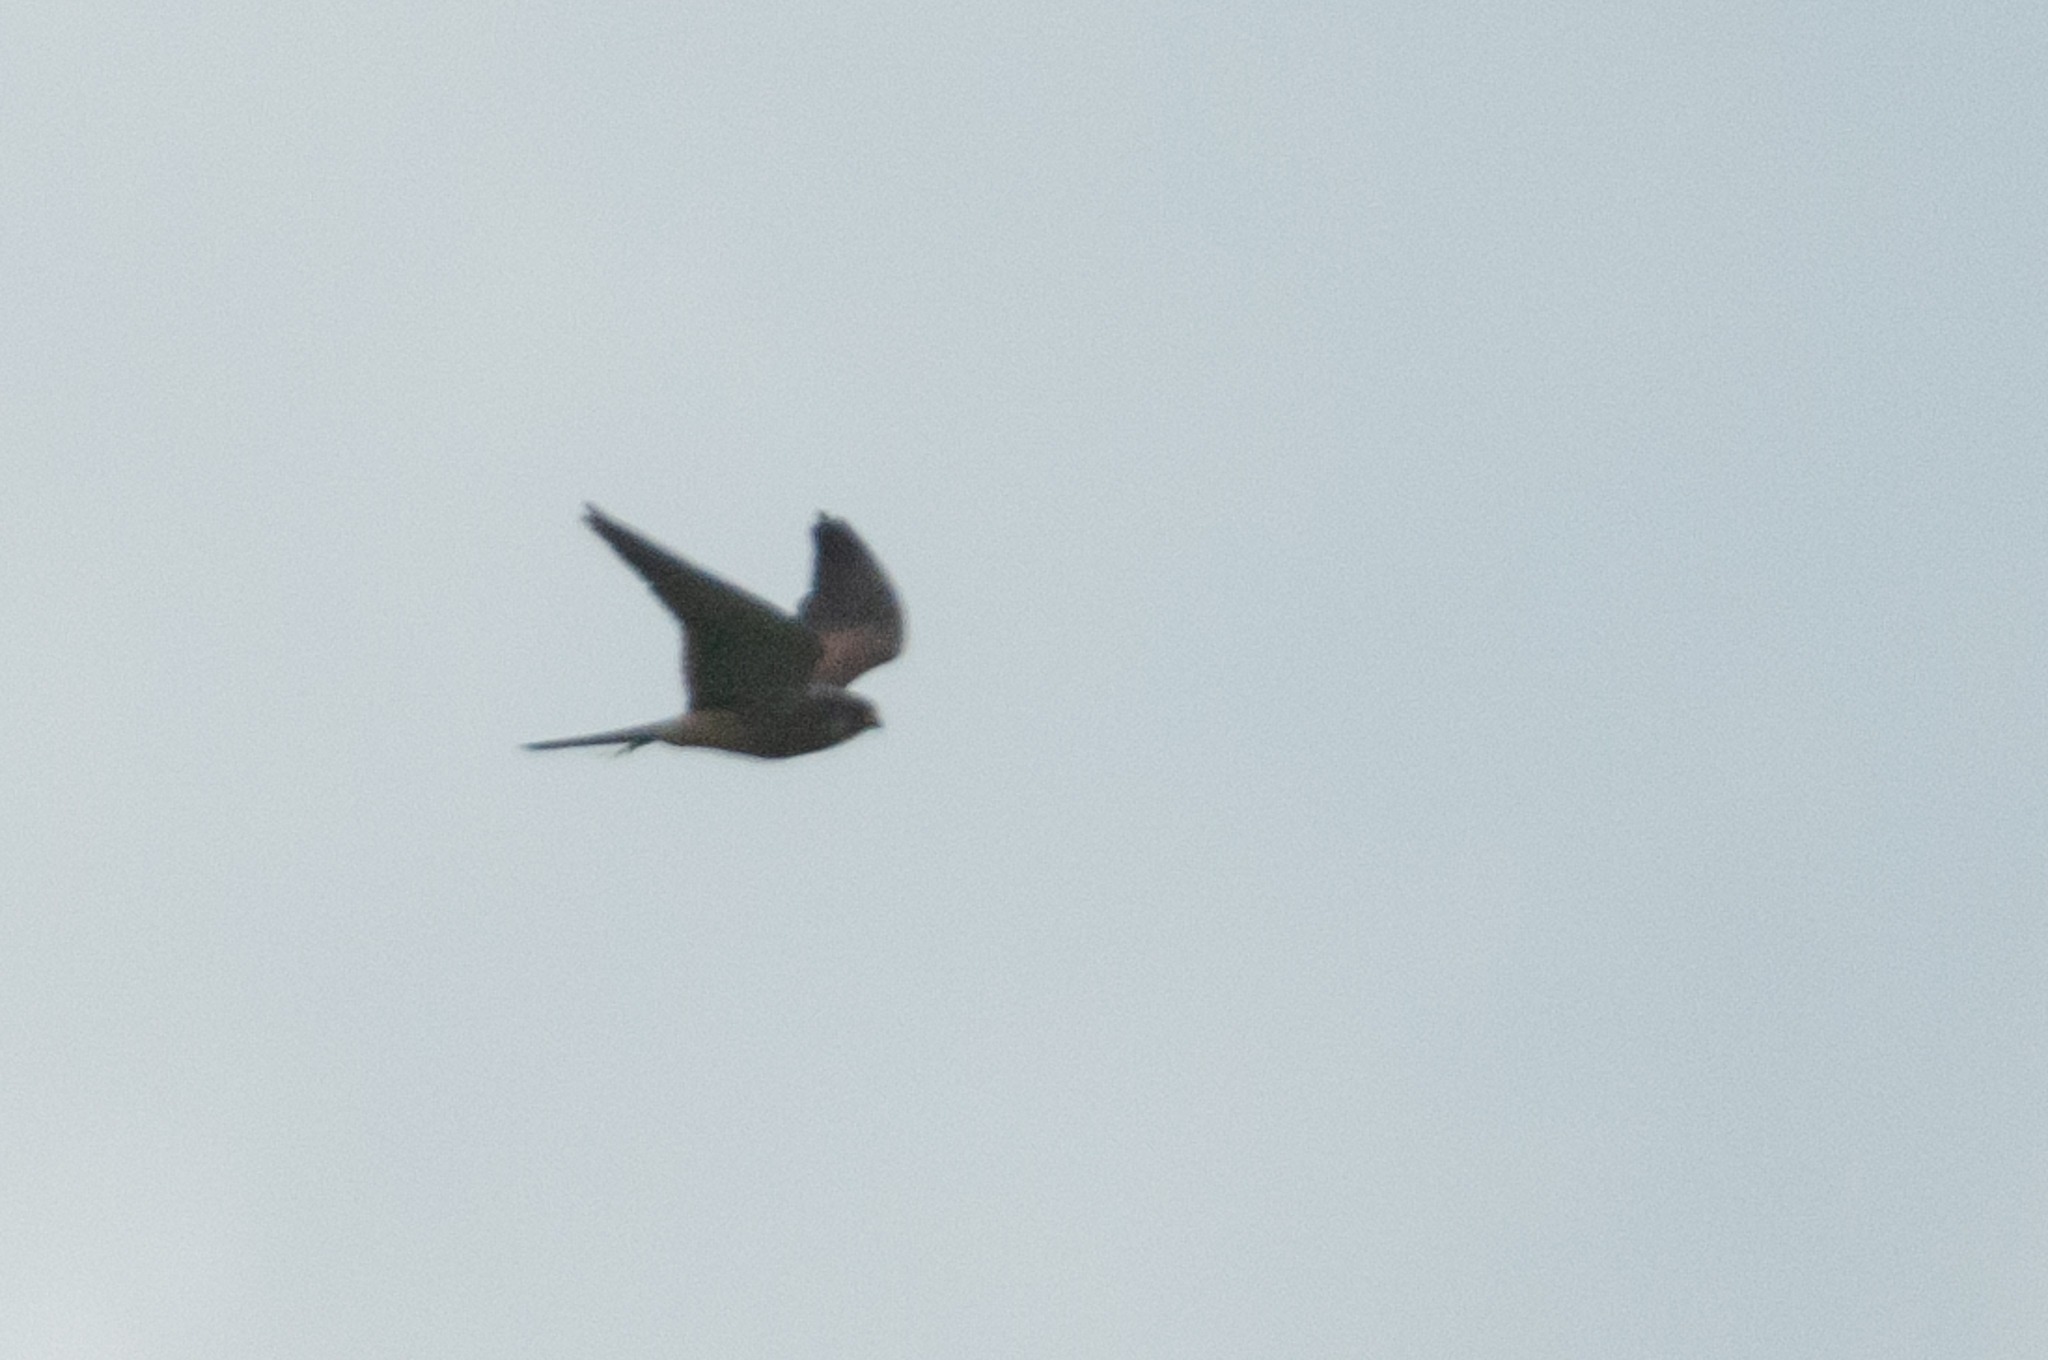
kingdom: Animalia
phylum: Chordata
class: Aves
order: Falconiformes
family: Falconidae
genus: Falco
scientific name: Falco tinnunculus
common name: Tårnfalk
